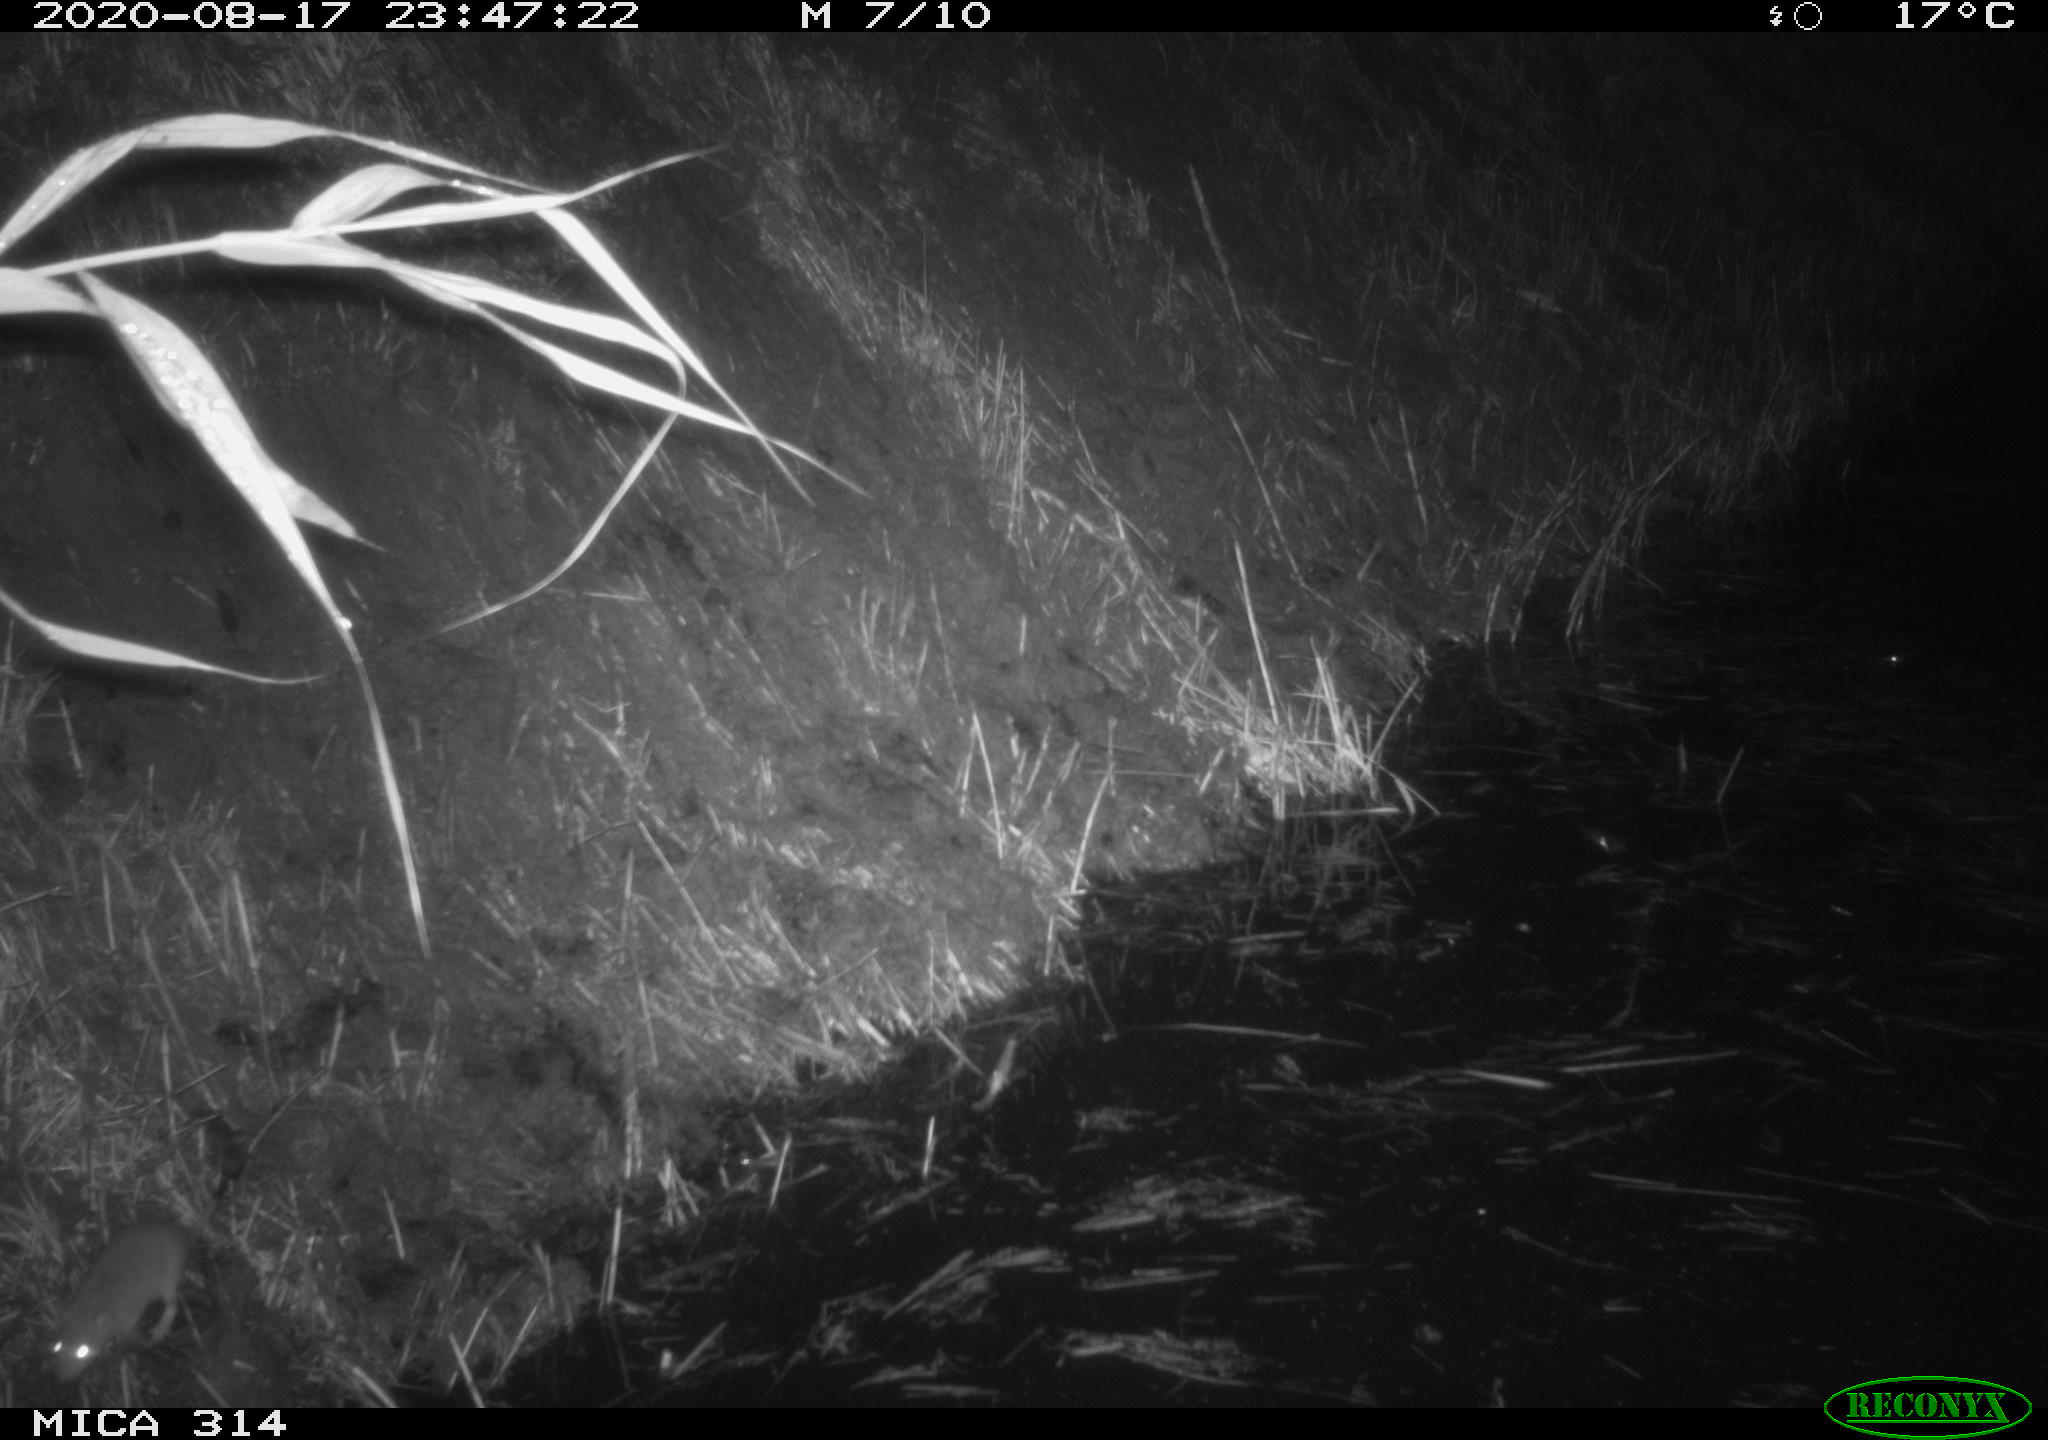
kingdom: Animalia
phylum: Chordata
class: Mammalia
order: Rodentia
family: Muridae
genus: Rattus
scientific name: Rattus norvegicus
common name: Brown rat
